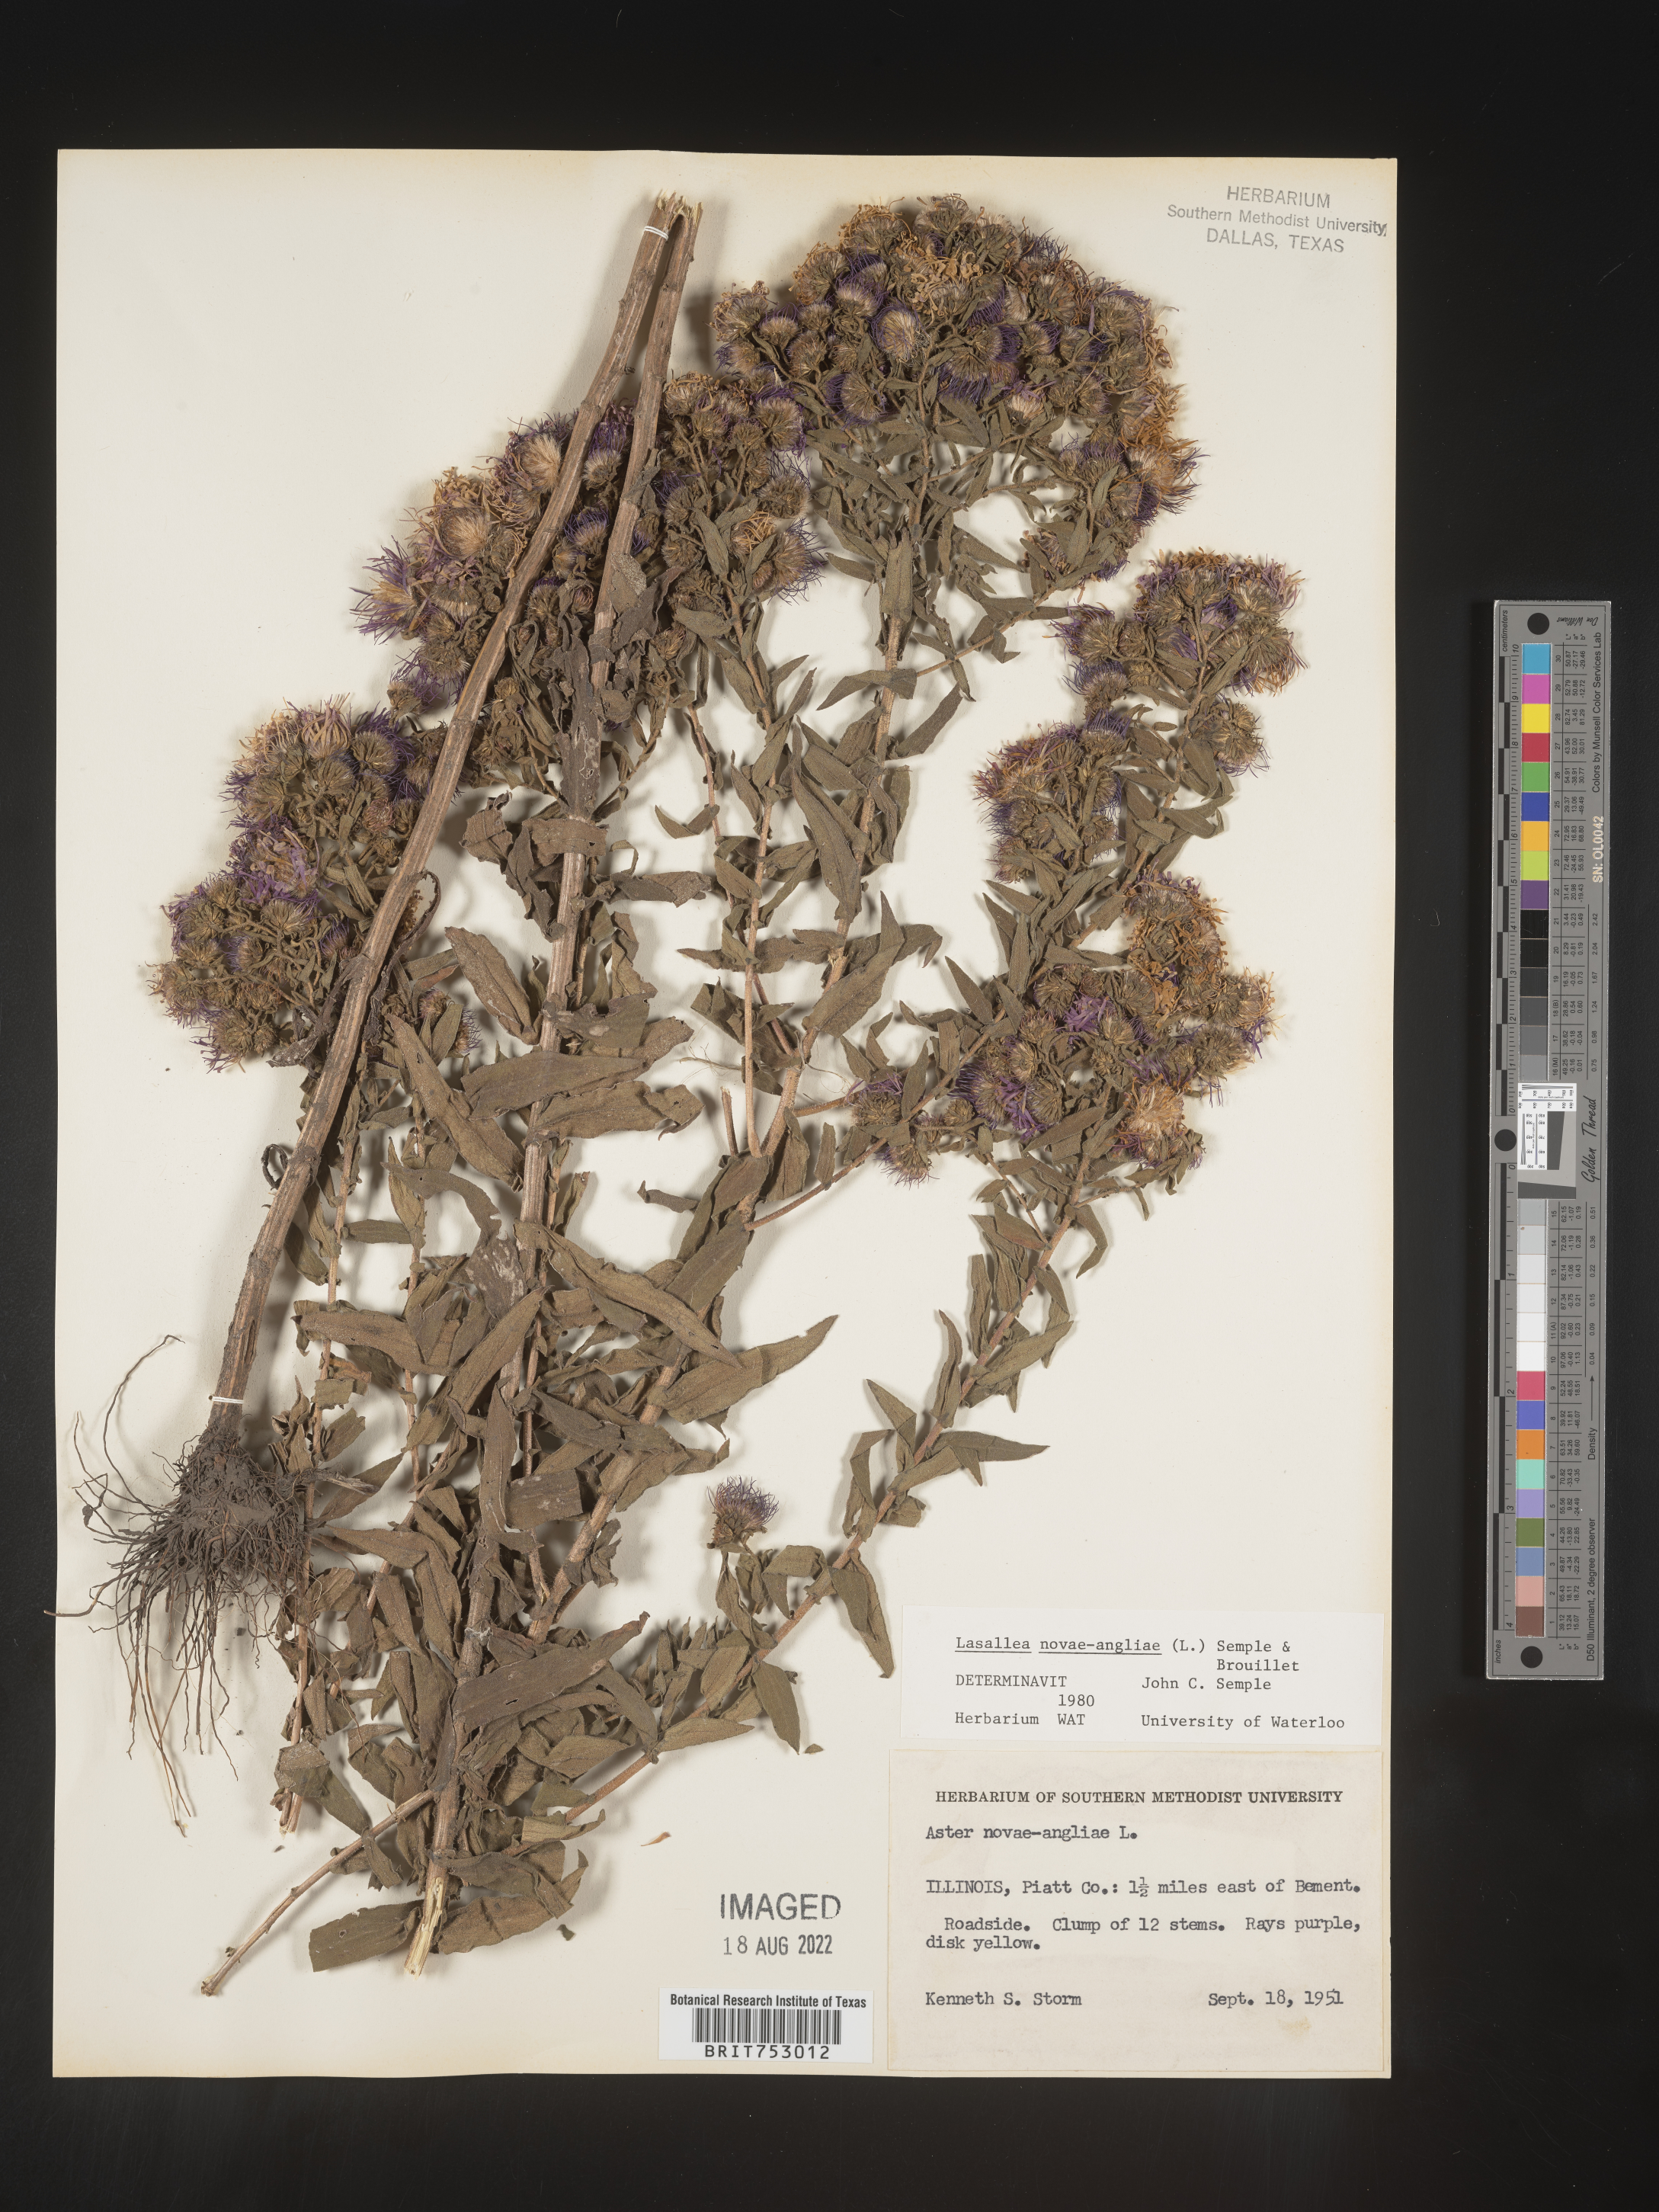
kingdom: Plantae
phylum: Tracheophyta
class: Magnoliopsida
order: Asterales
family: Asteraceae
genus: Symphyotrichum
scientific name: Symphyotrichum novae-angliae
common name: Michaelmas daisy
